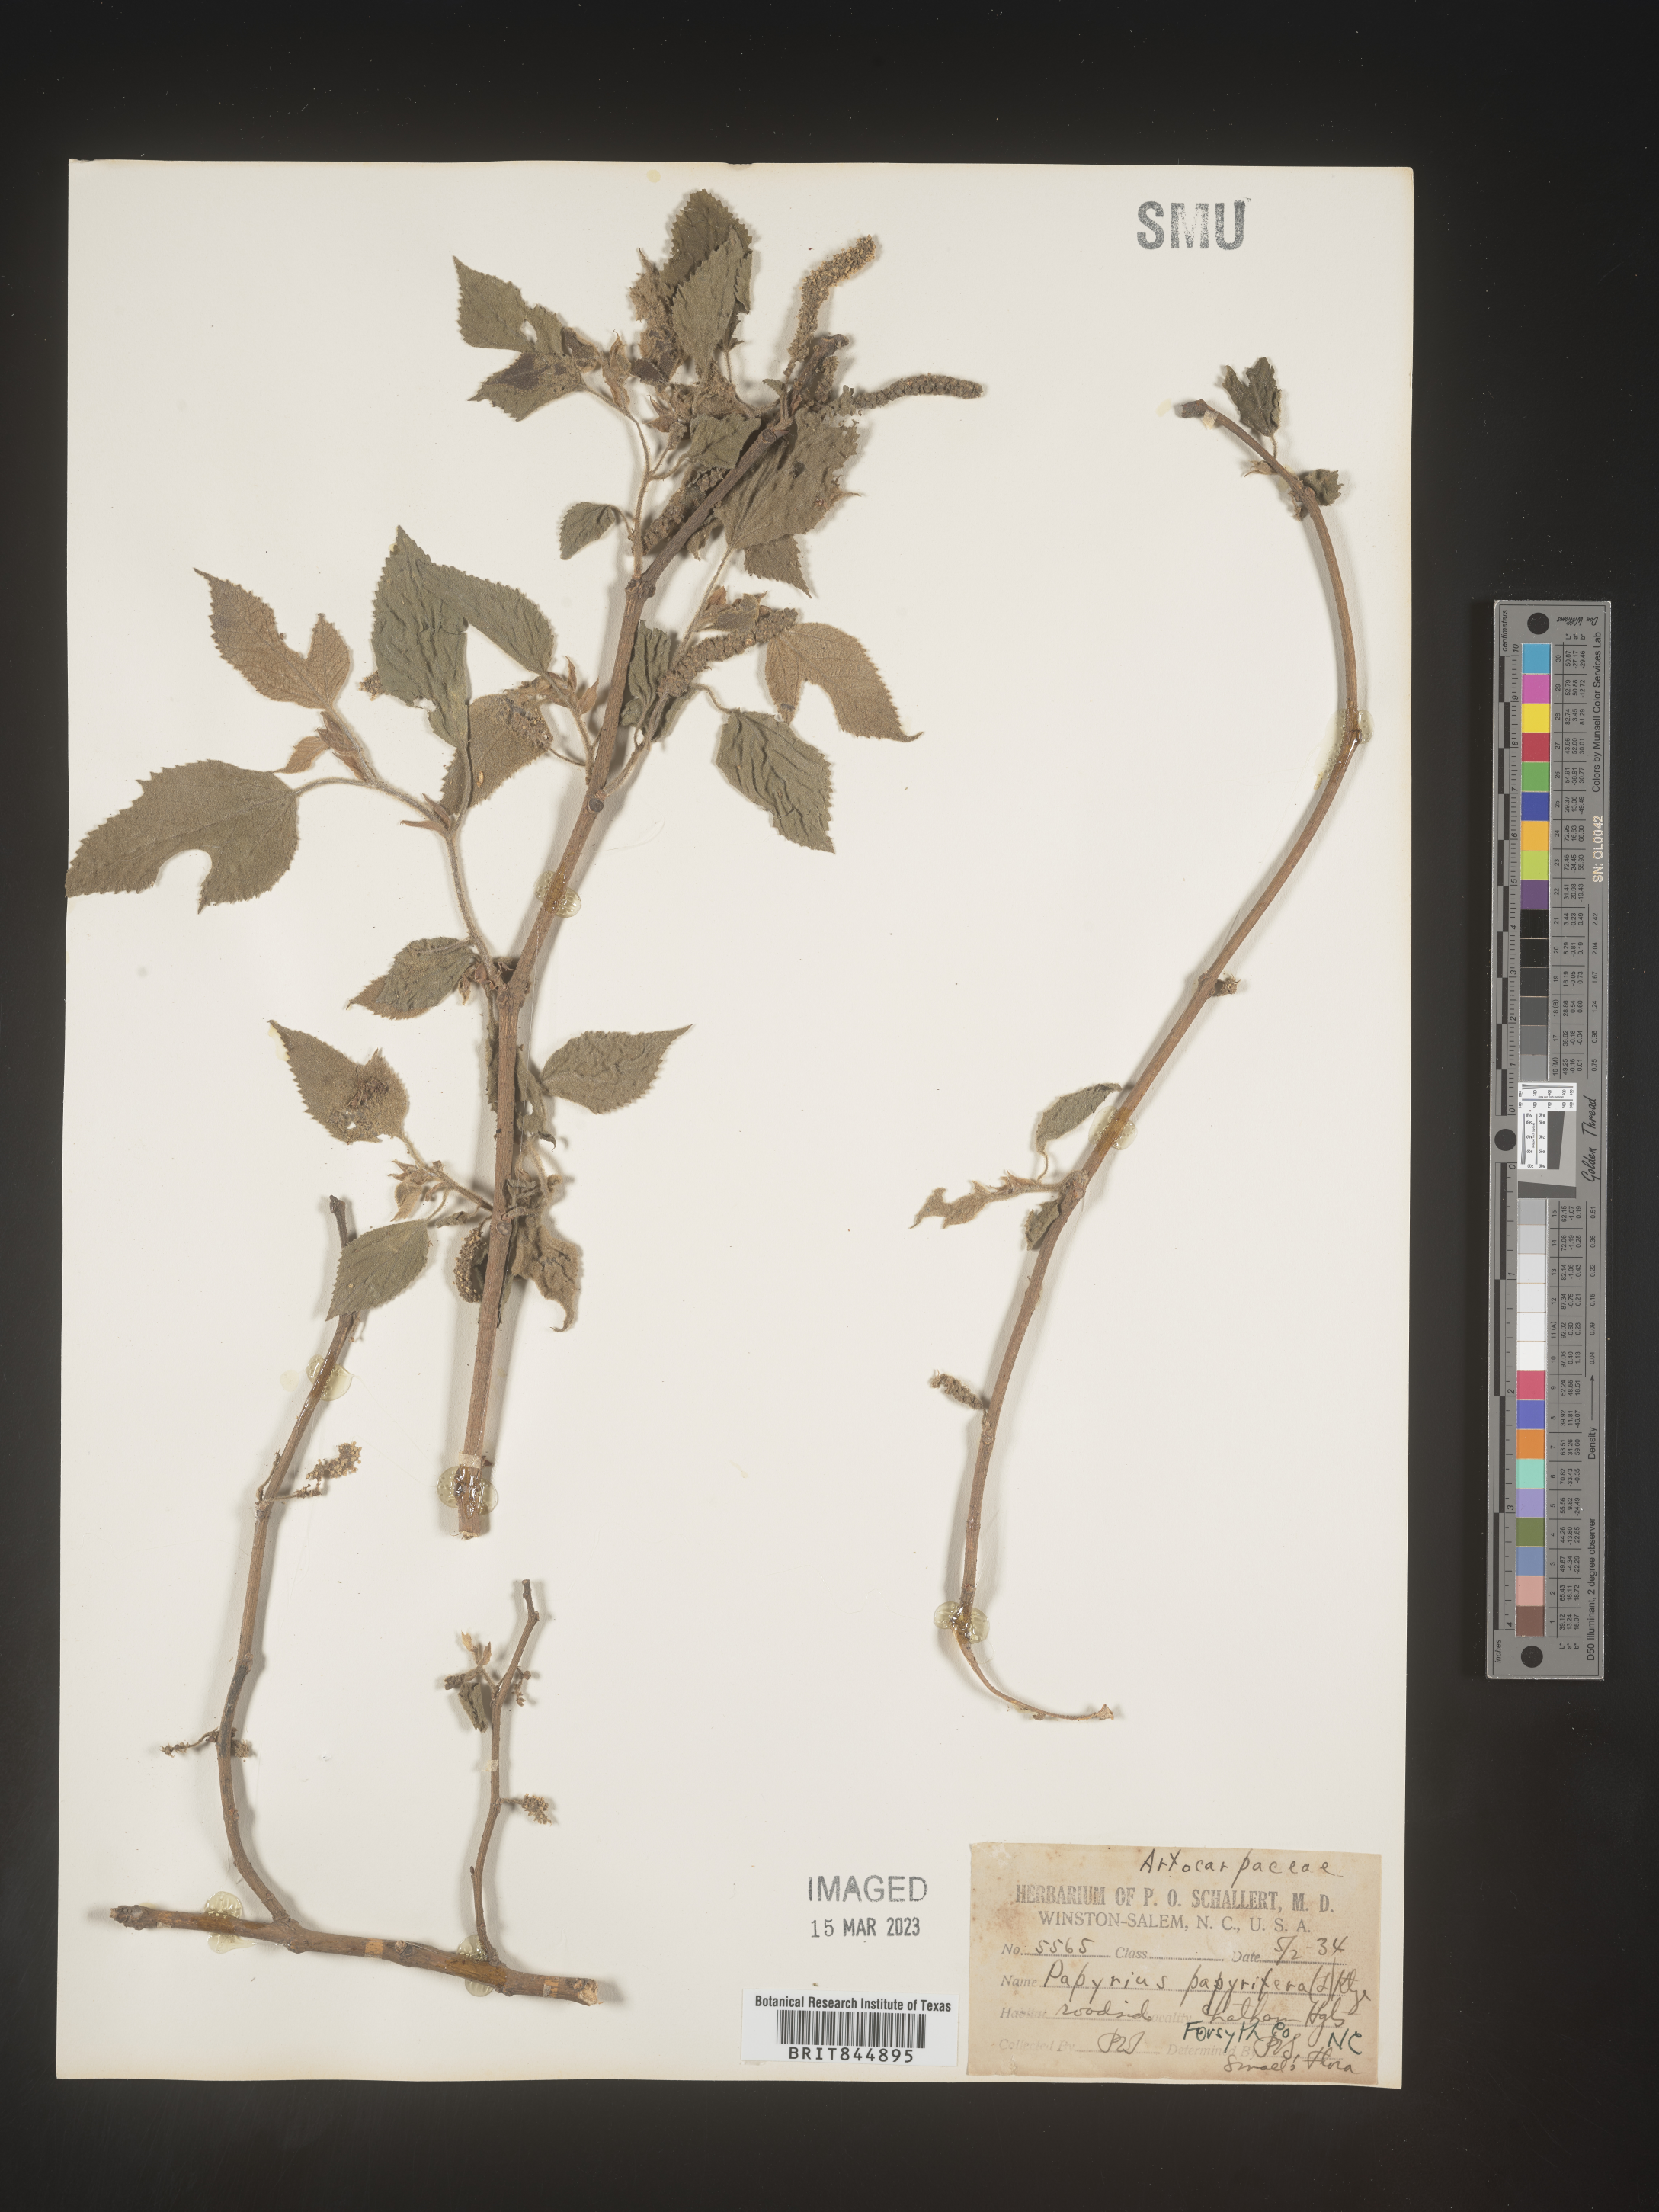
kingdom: Plantae
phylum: Tracheophyta
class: Magnoliopsida
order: Rosales
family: Moraceae
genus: Broussonetia
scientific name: Broussonetia
